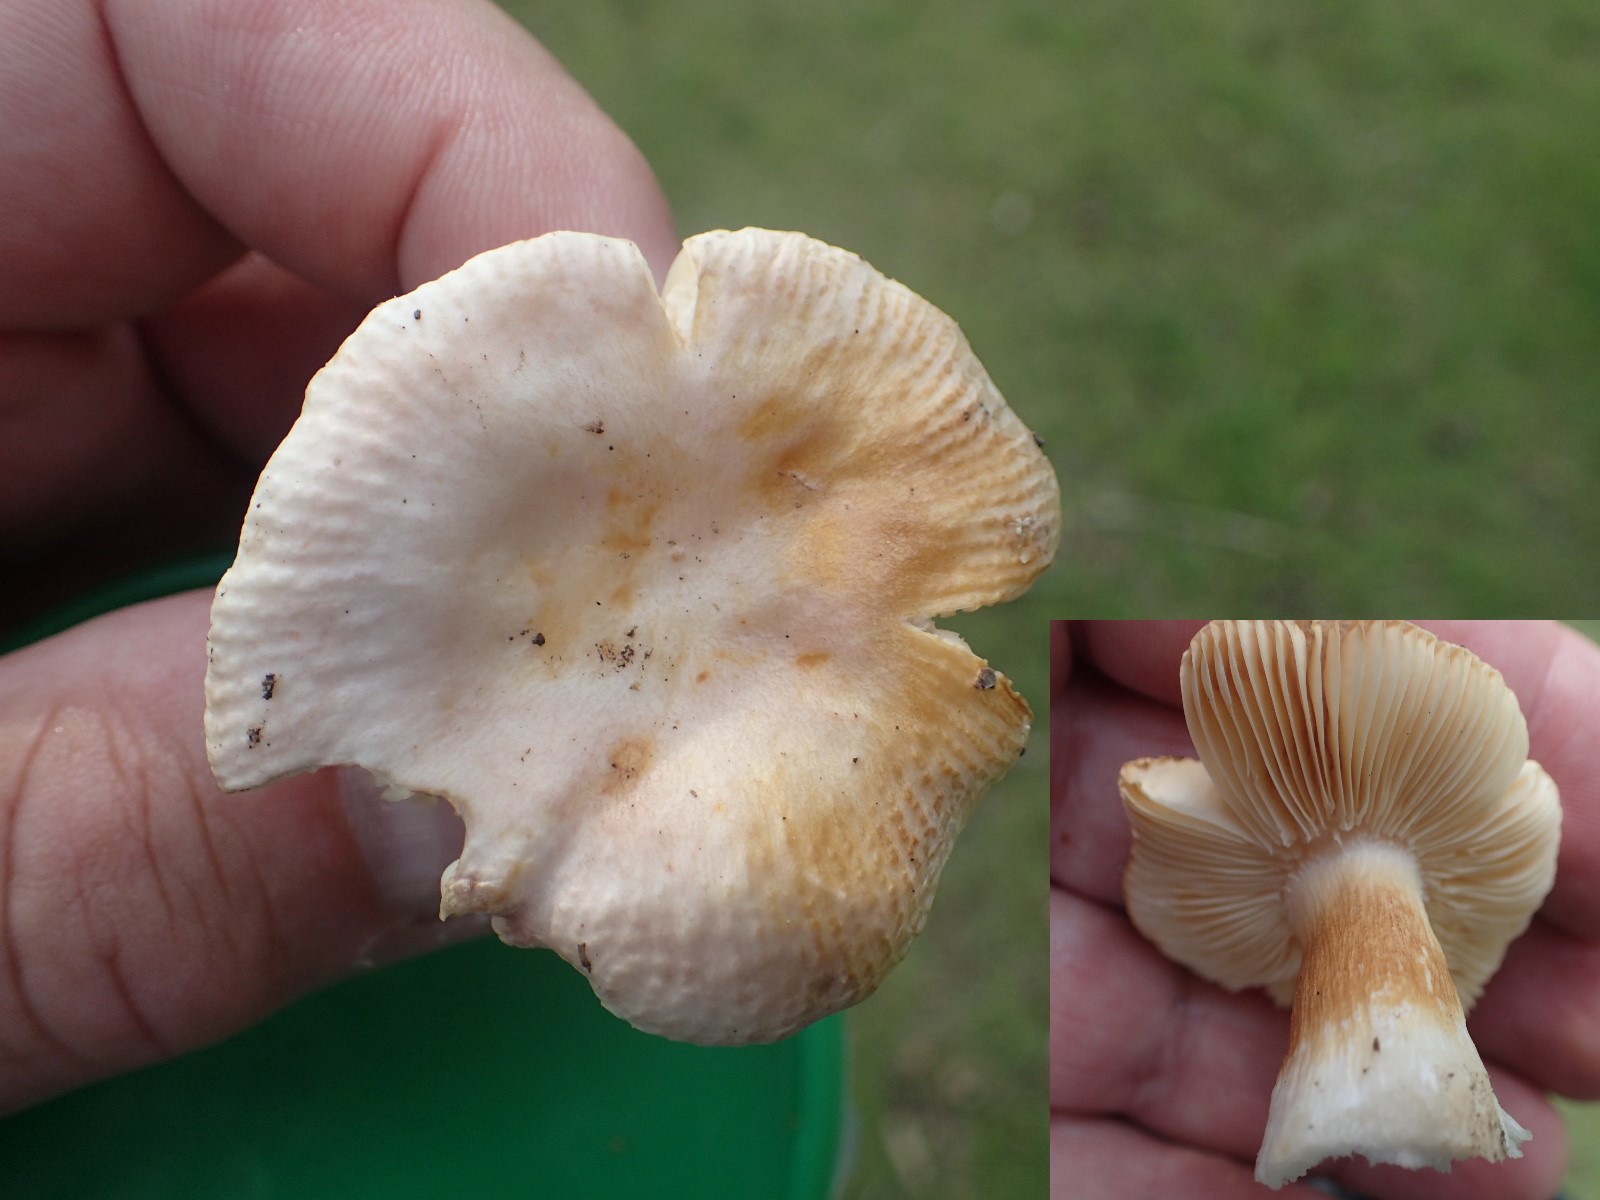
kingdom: Fungi
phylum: Basidiomycota
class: Agaricomycetes
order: Russulales
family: Russulaceae
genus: Russula
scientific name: Russula odorata
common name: duft-skørhat
